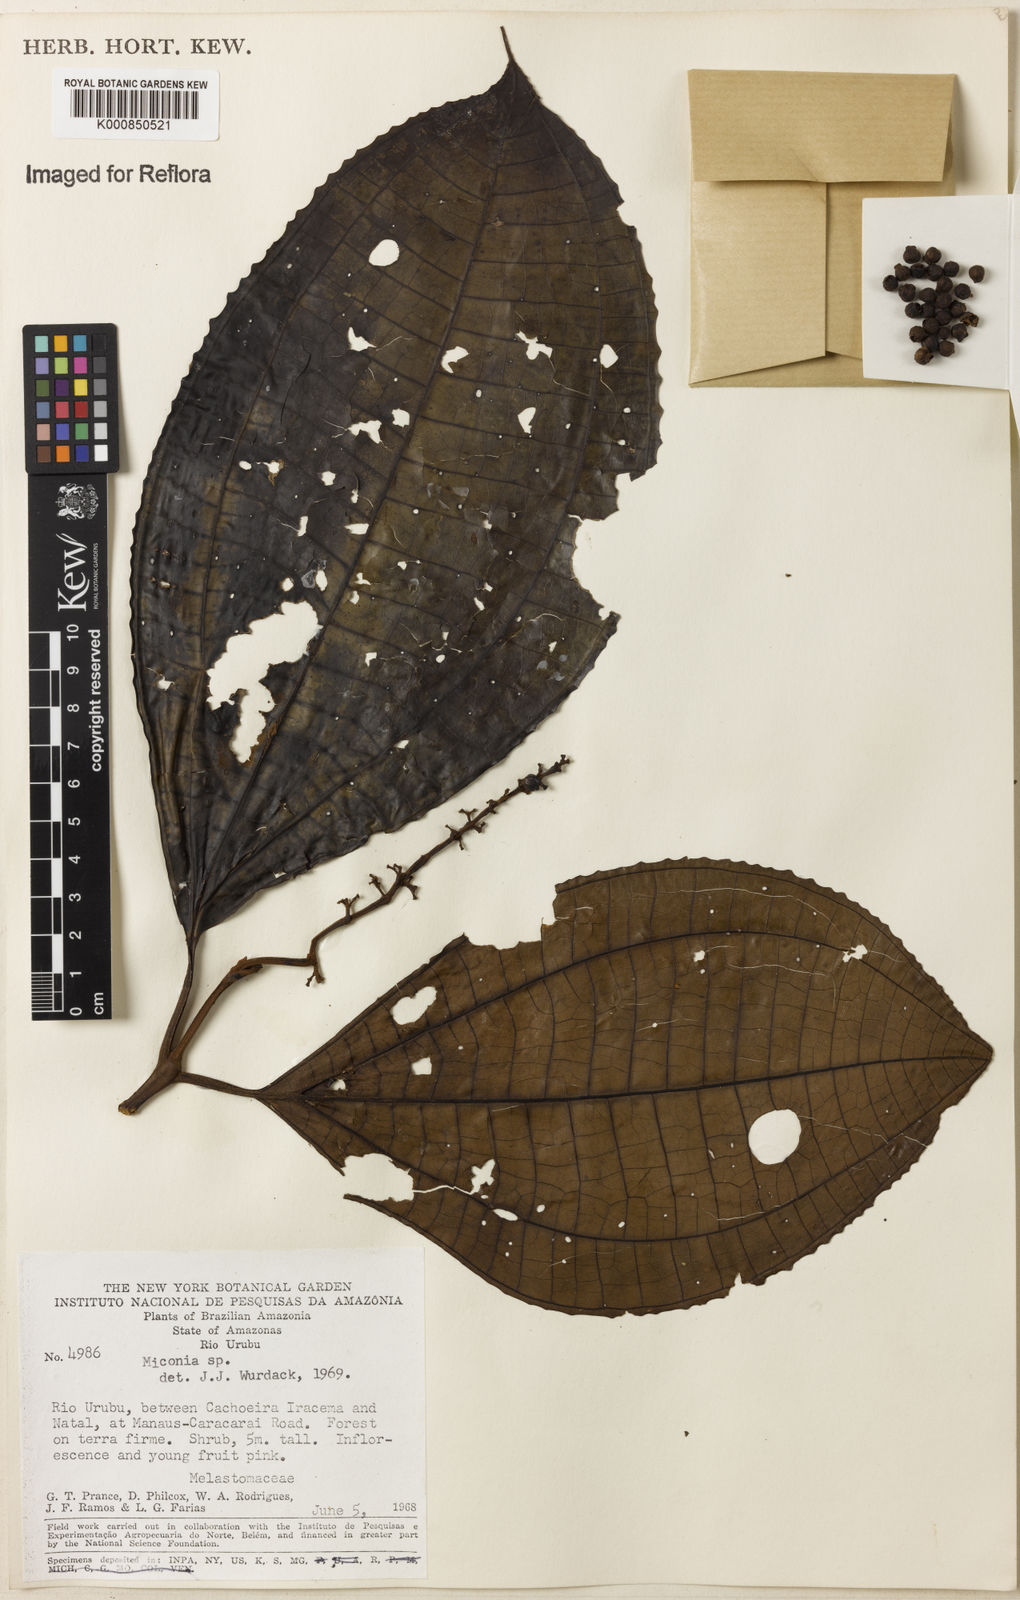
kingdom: Plantae
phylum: Tracheophyta
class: Magnoliopsida
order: Myrtales
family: Melastomataceae
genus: Miconia
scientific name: Miconia
